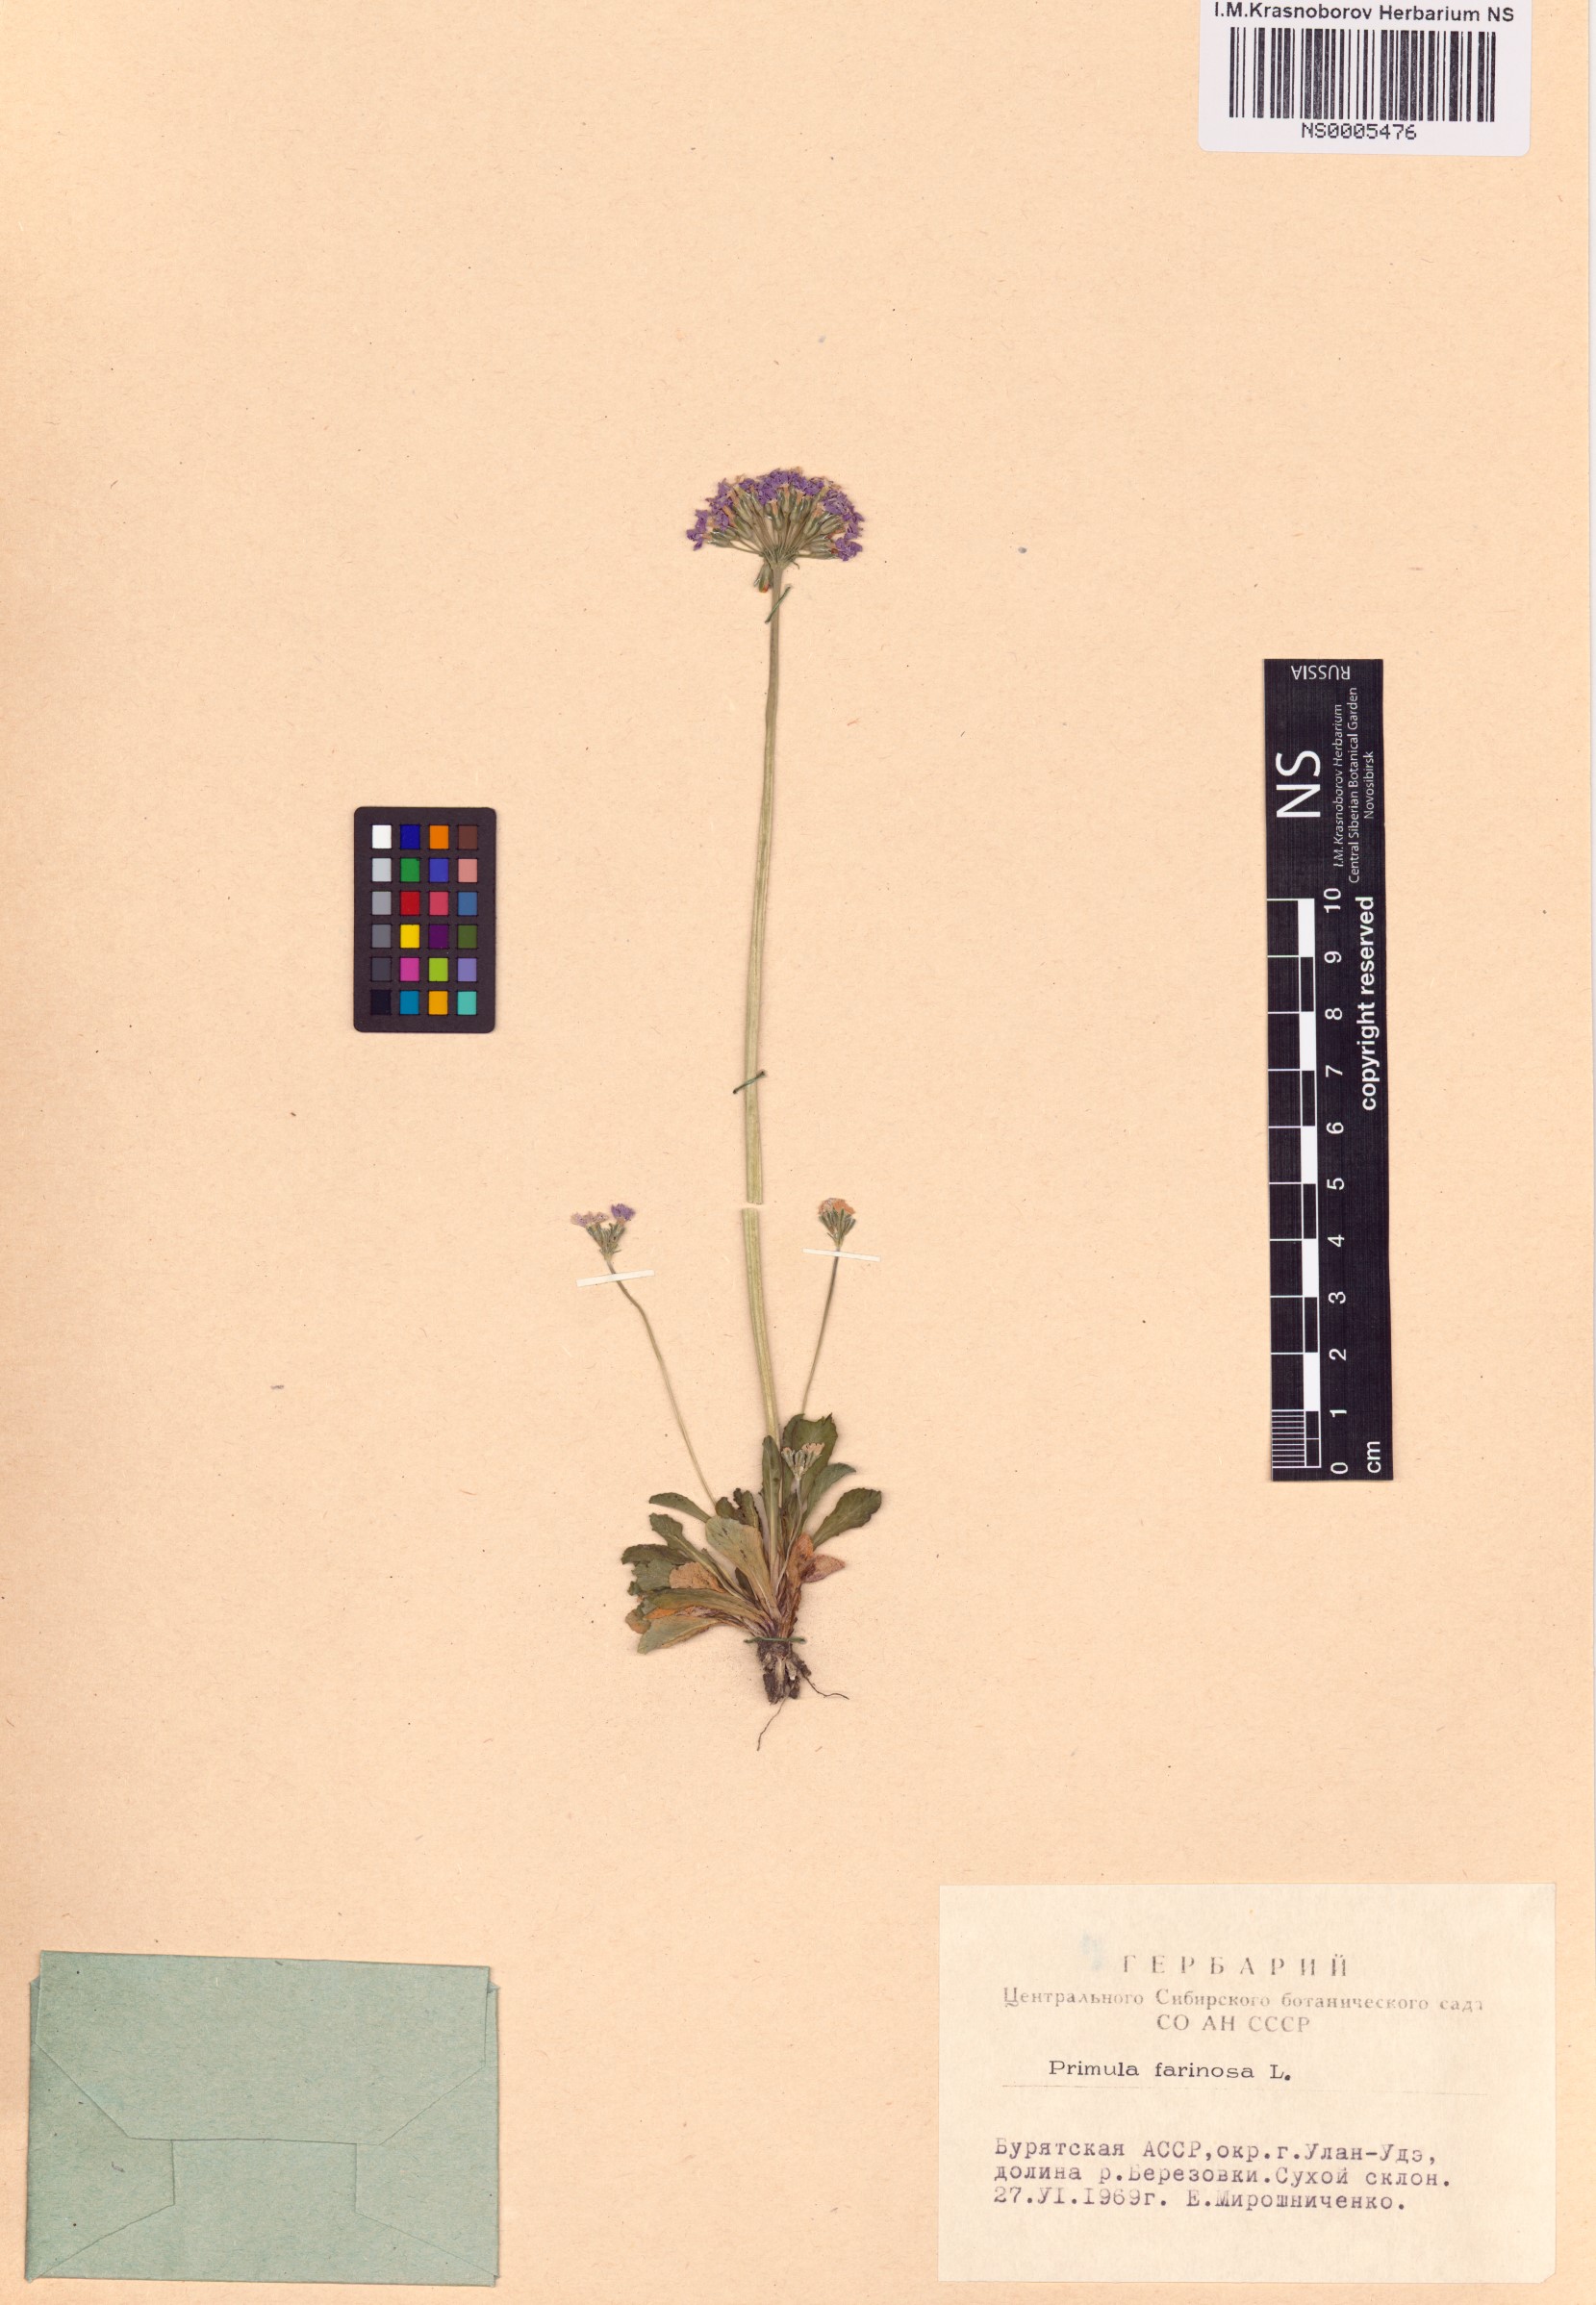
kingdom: Plantae
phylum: Tracheophyta
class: Magnoliopsida
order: Ericales
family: Primulaceae
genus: Primula
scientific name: Primula farinosa
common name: Bird's-eye primrose
